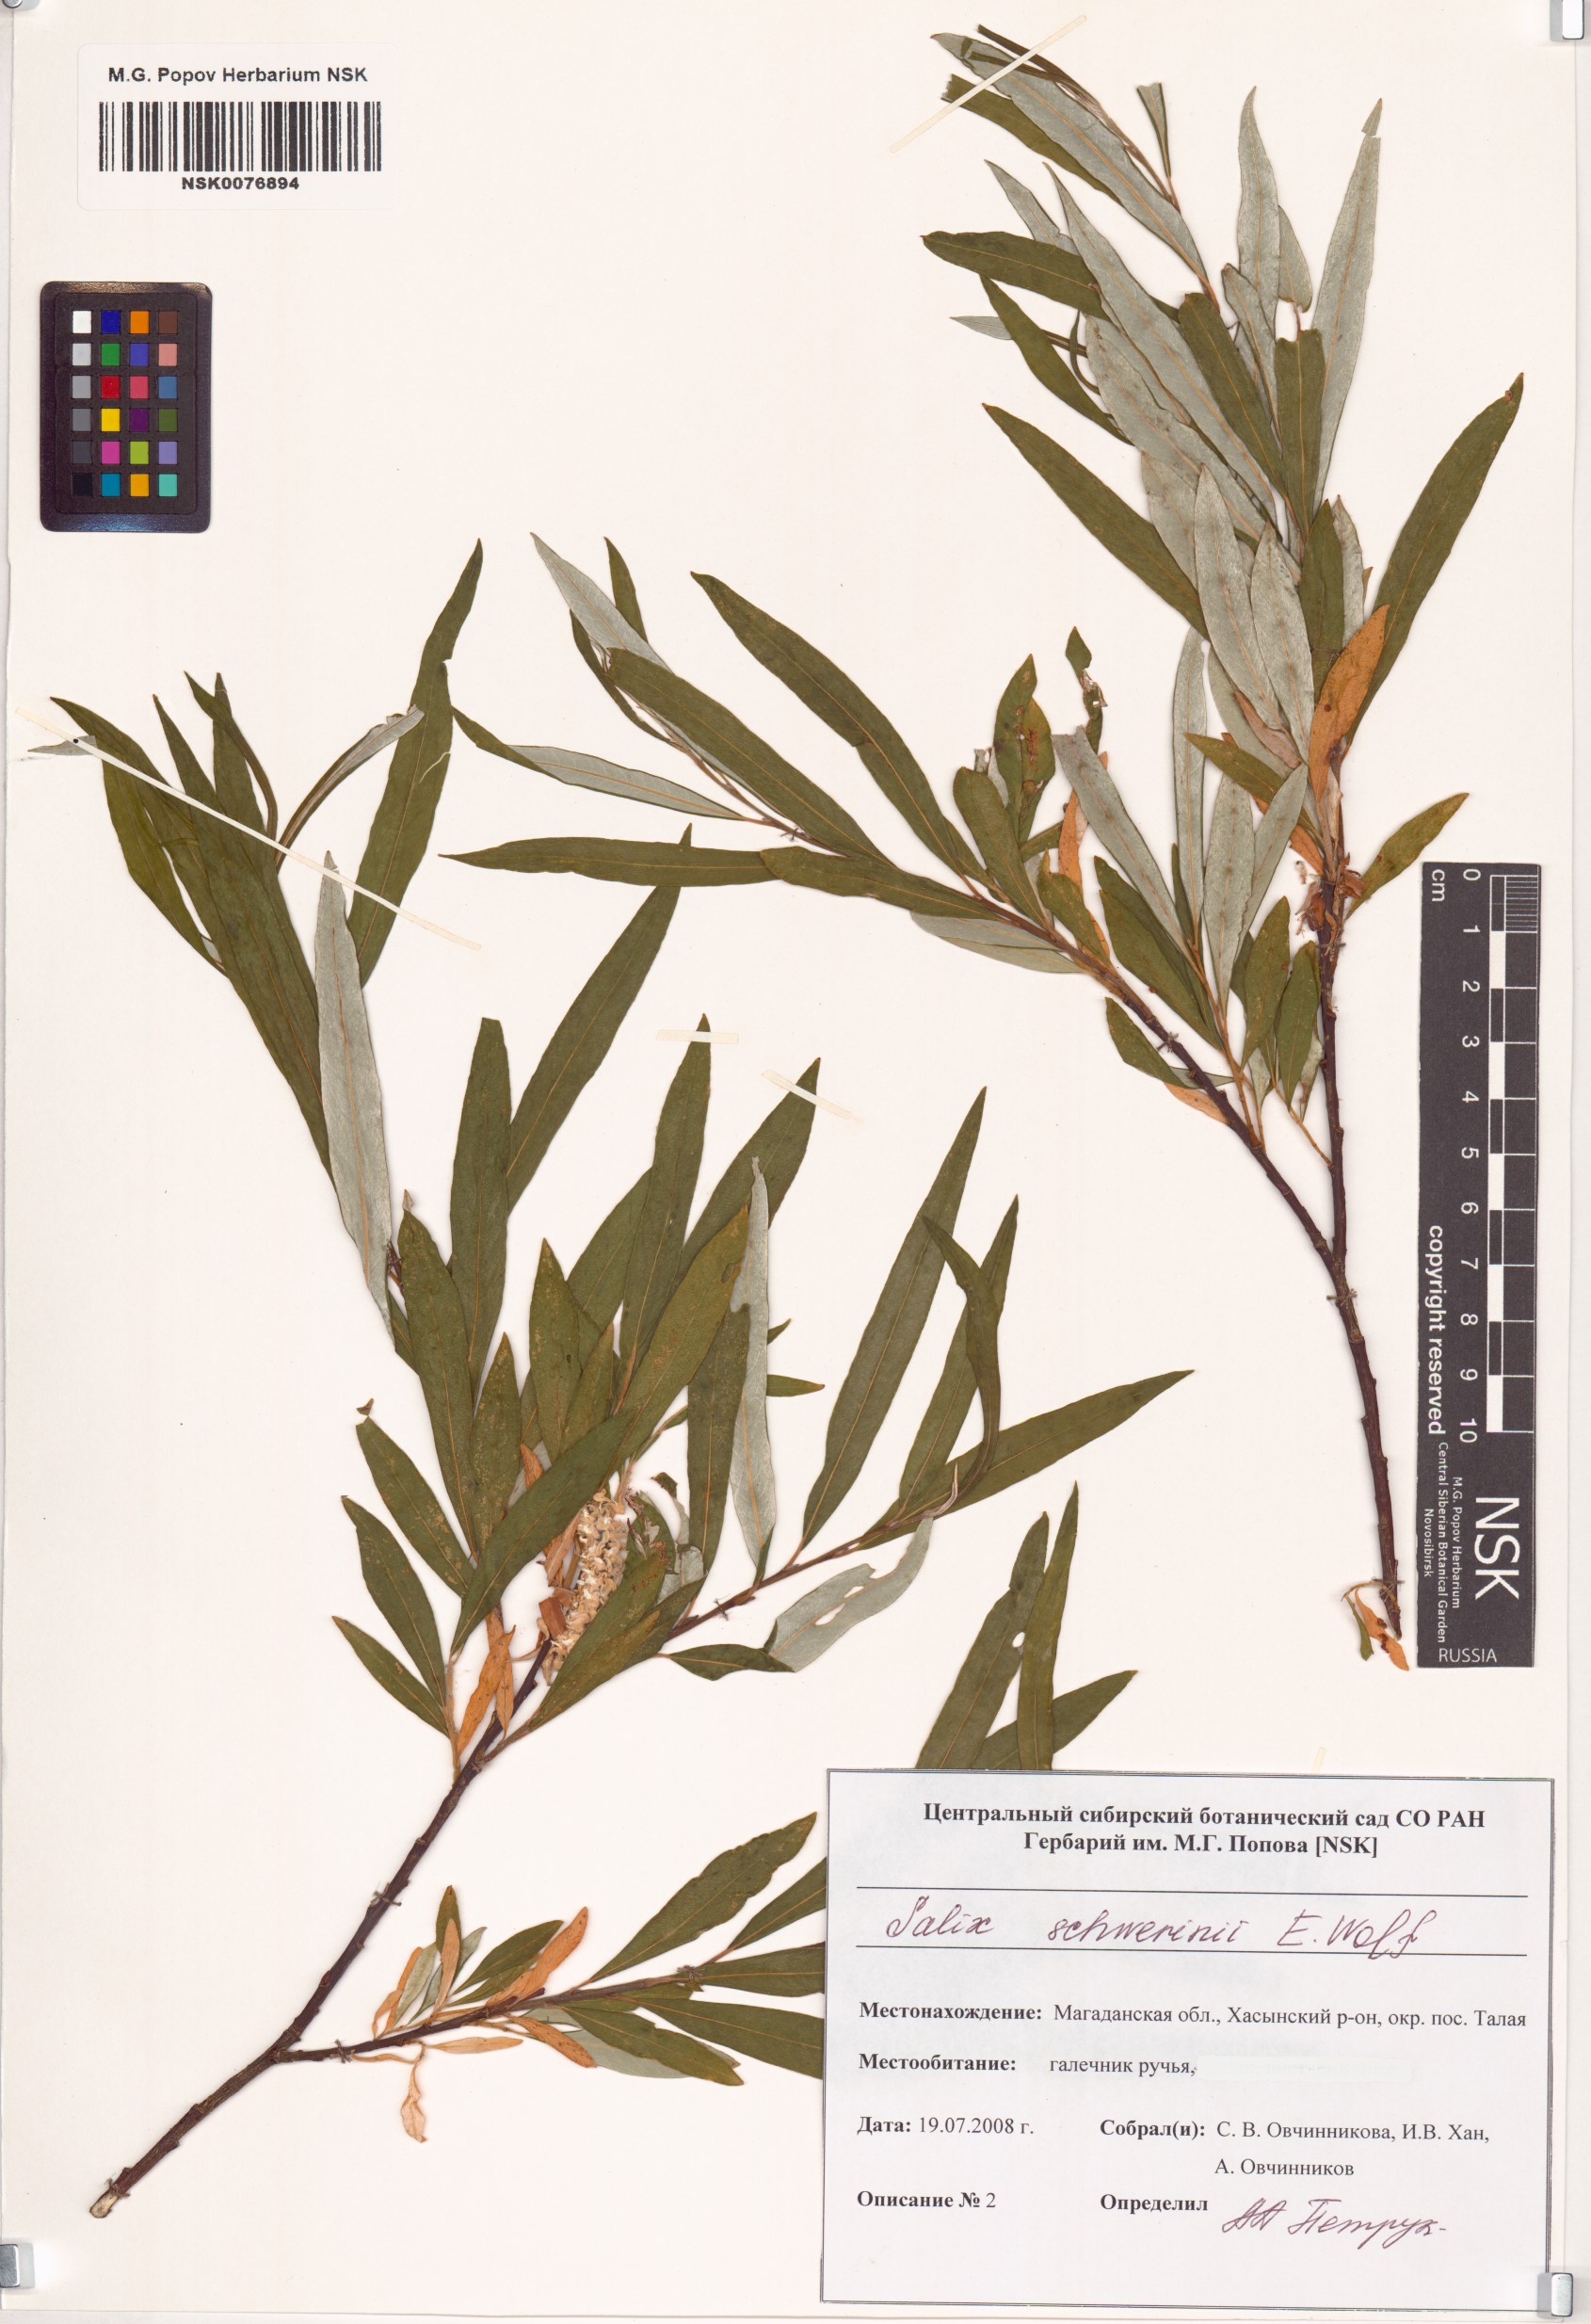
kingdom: Plantae
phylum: Tracheophyta
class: Magnoliopsida
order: Malpighiales
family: Salicaceae
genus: Salix
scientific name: Salix schwerinii
